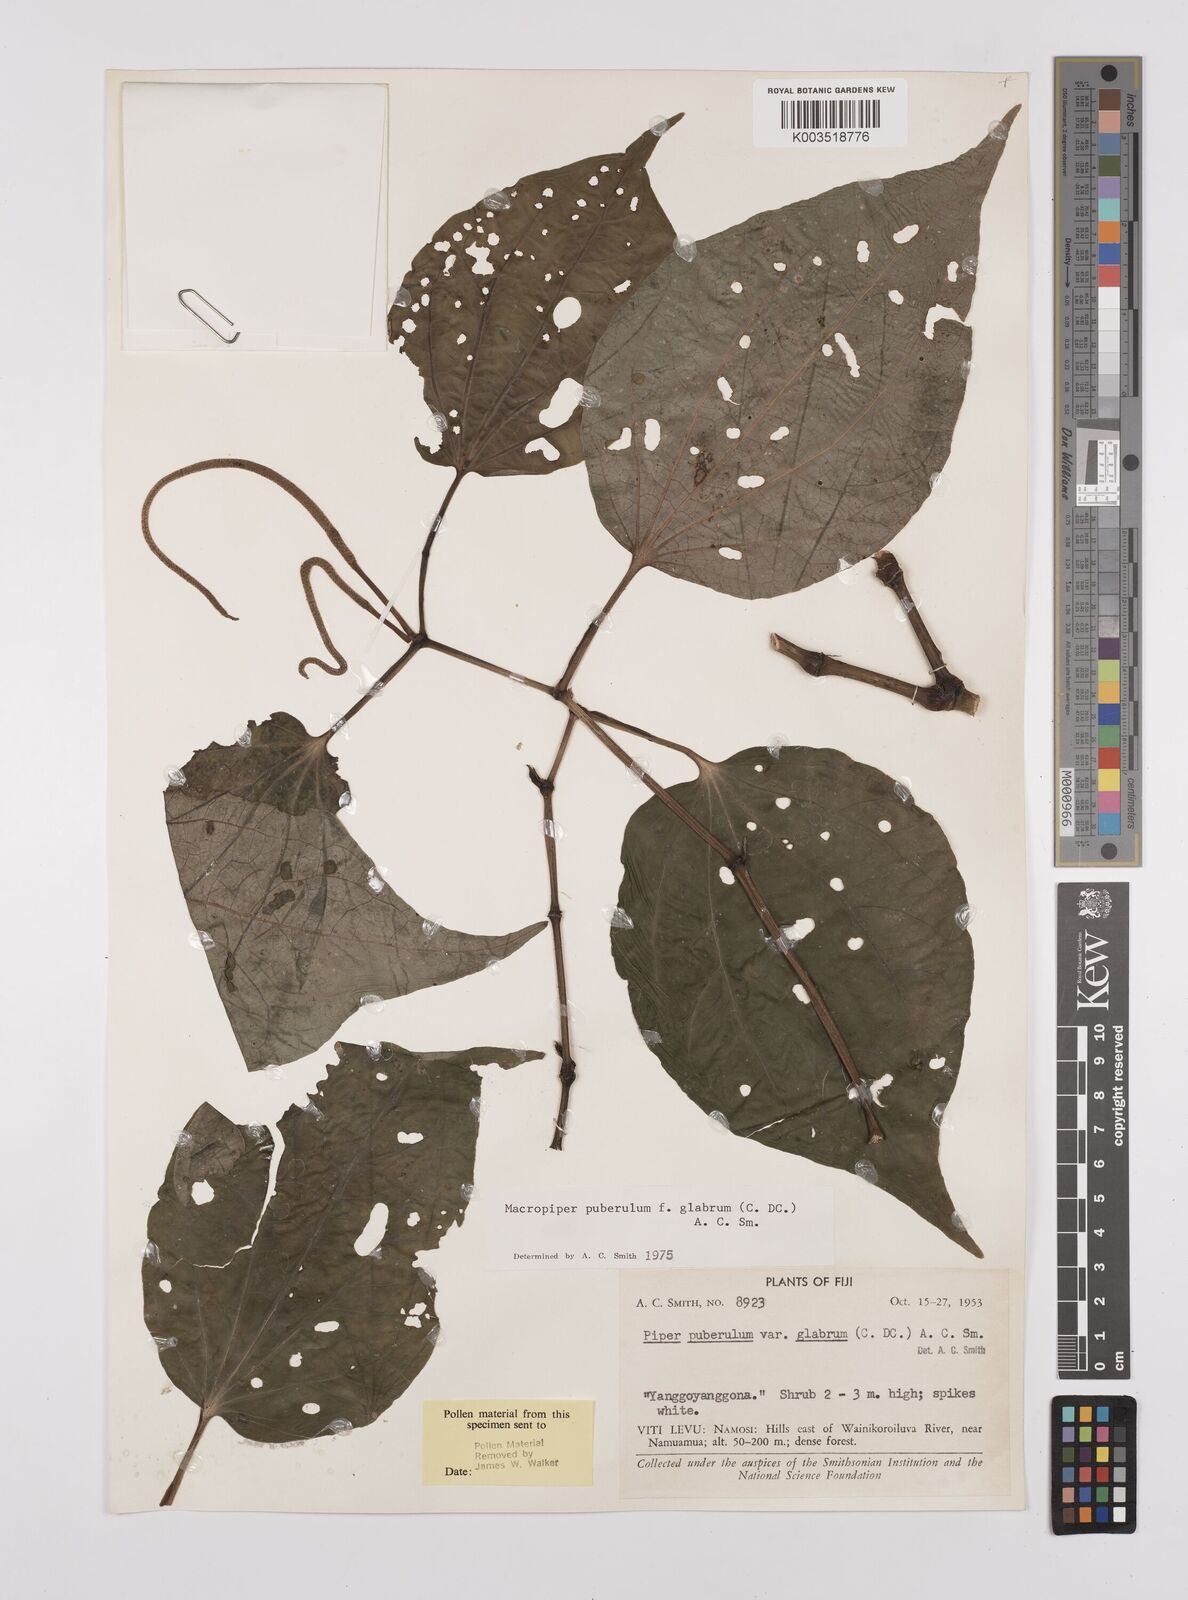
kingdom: Plantae
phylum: Tracheophyta
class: Magnoliopsida
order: Piperales
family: Piperaceae
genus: Macropiper
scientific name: Macropiper puberulum
